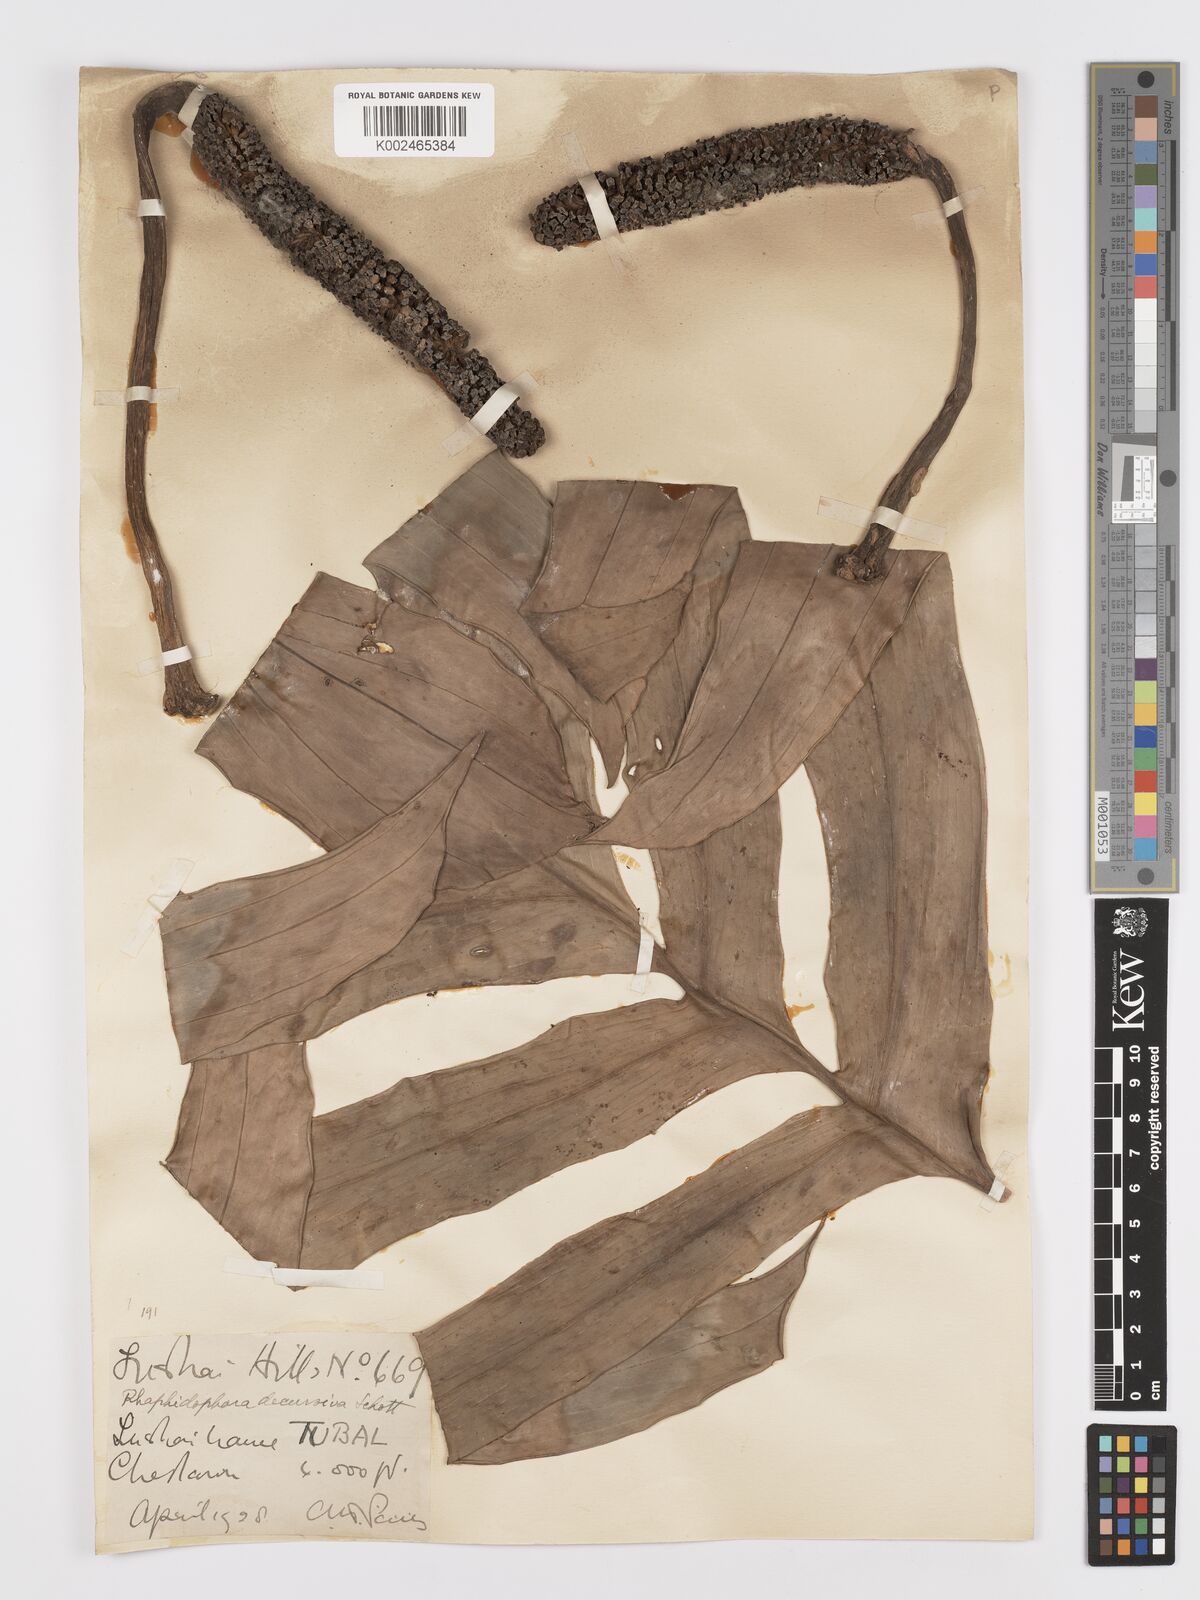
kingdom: Plantae
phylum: Tracheophyta
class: Liliopsida
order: Alismatales
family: Araceae
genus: Rhaphidophora
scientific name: Rhaphidophora decursiva
